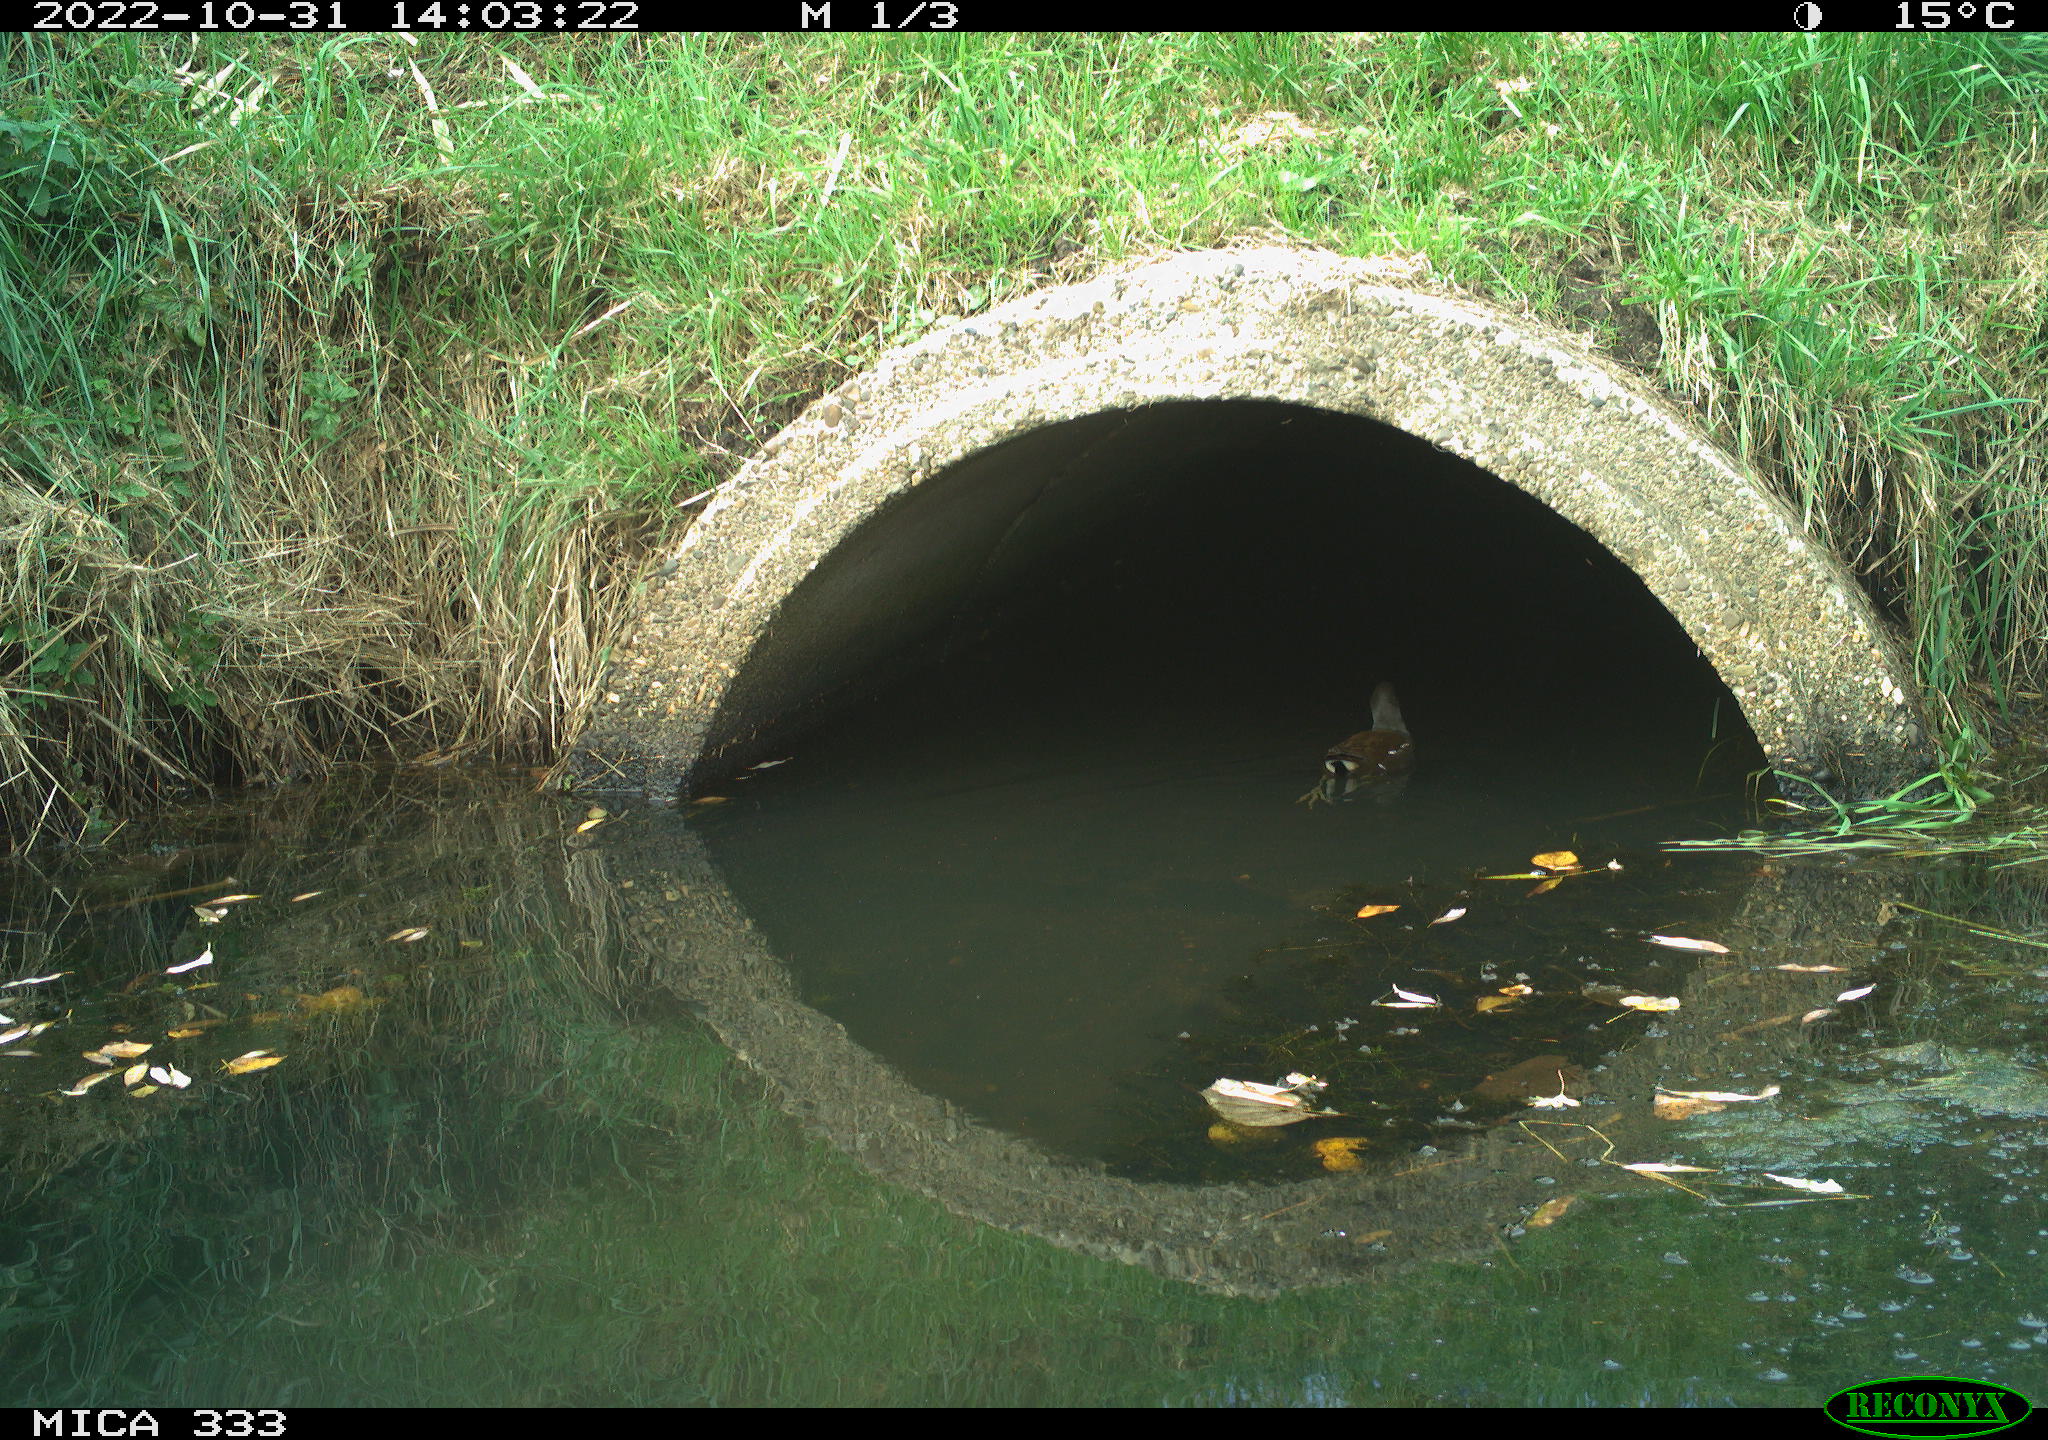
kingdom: Animalia
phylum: Chordata
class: Aves
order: Gruiformes
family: Rallidae
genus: Gallinula
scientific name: Gallinula chloropus
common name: Common moorhen
